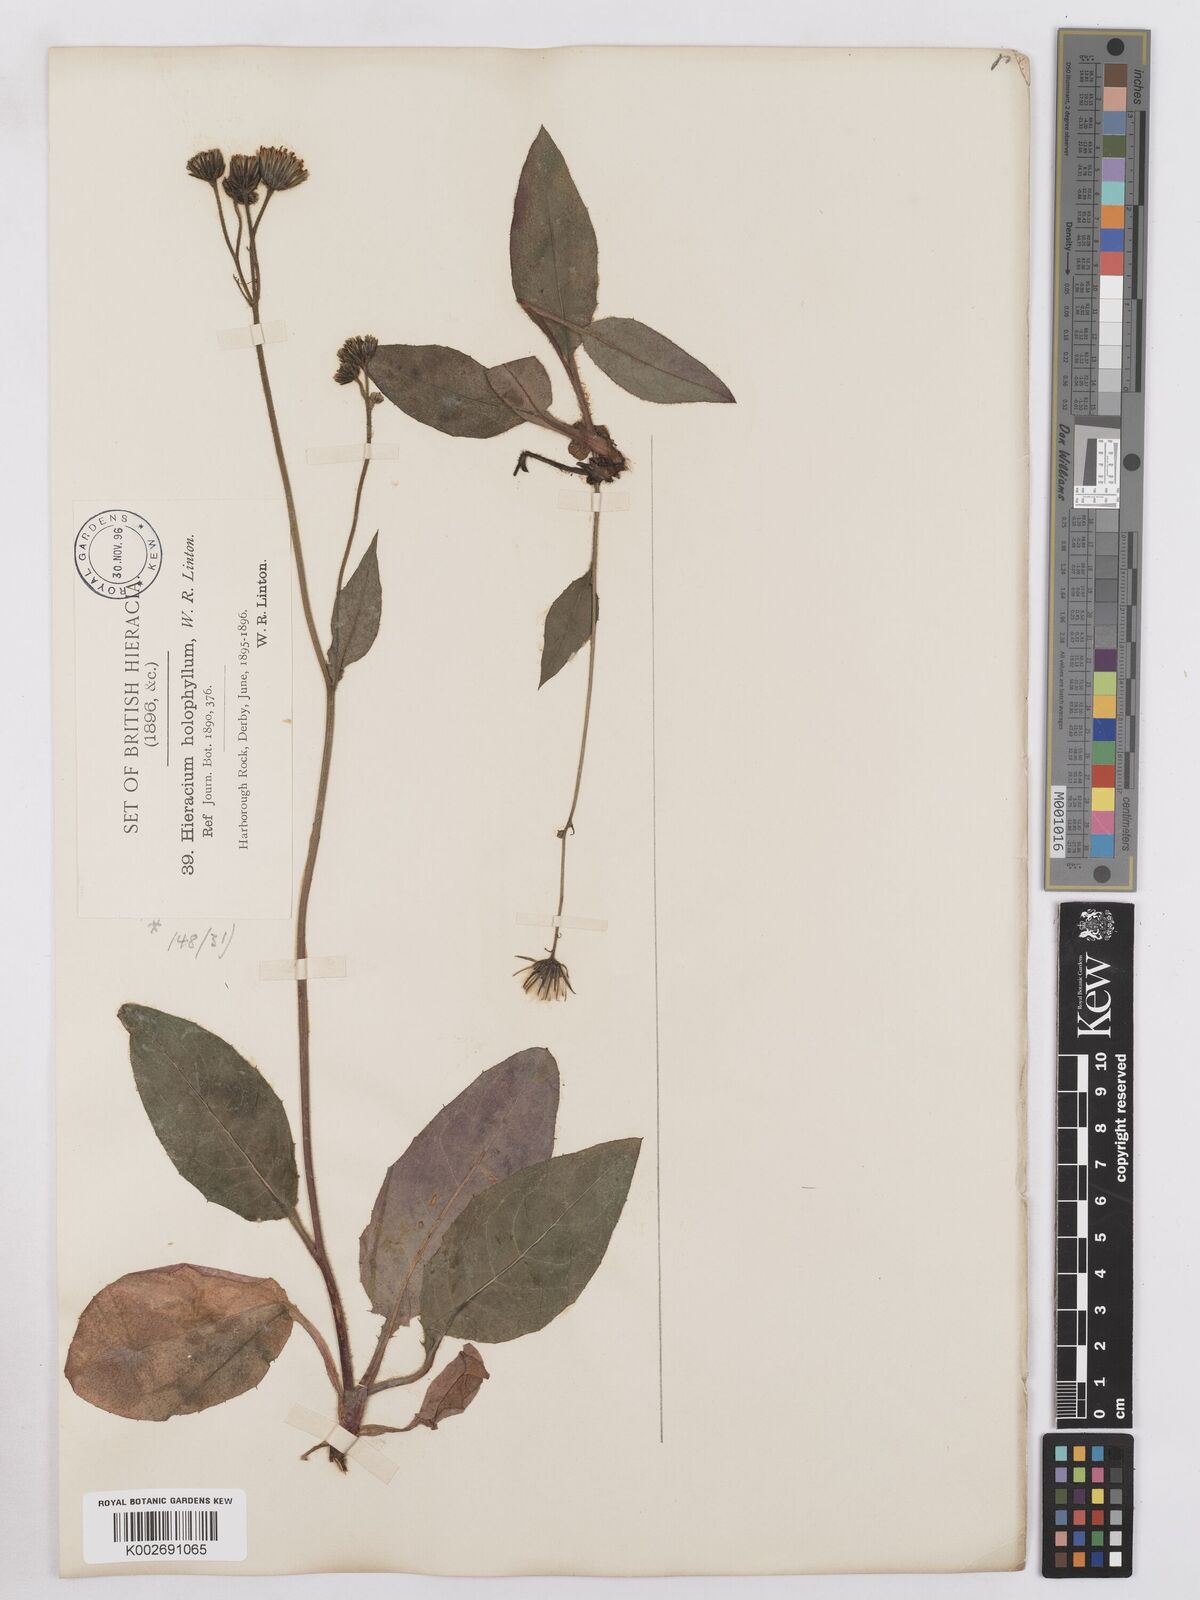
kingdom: Plantae
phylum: Tracheophyta
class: Magnoliopsida
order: Asterales
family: Asteraceae
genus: Hieracium
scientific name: Hieracium holophyllum
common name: Undivided-leaved hawkweed
